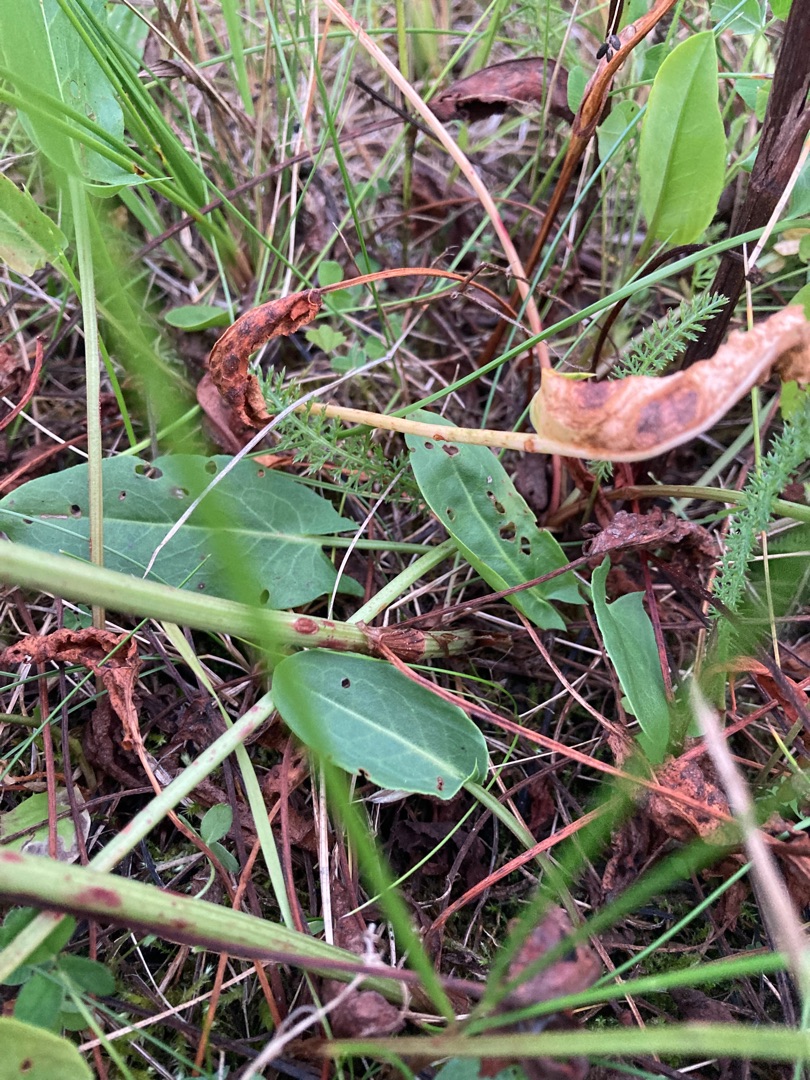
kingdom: Plantae
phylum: Tracheophyta
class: Magnoliopsida
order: Caryophyllales
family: Polygonaceae
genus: Rumex
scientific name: Rumex thyrsiflorus
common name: Dusk-syre
